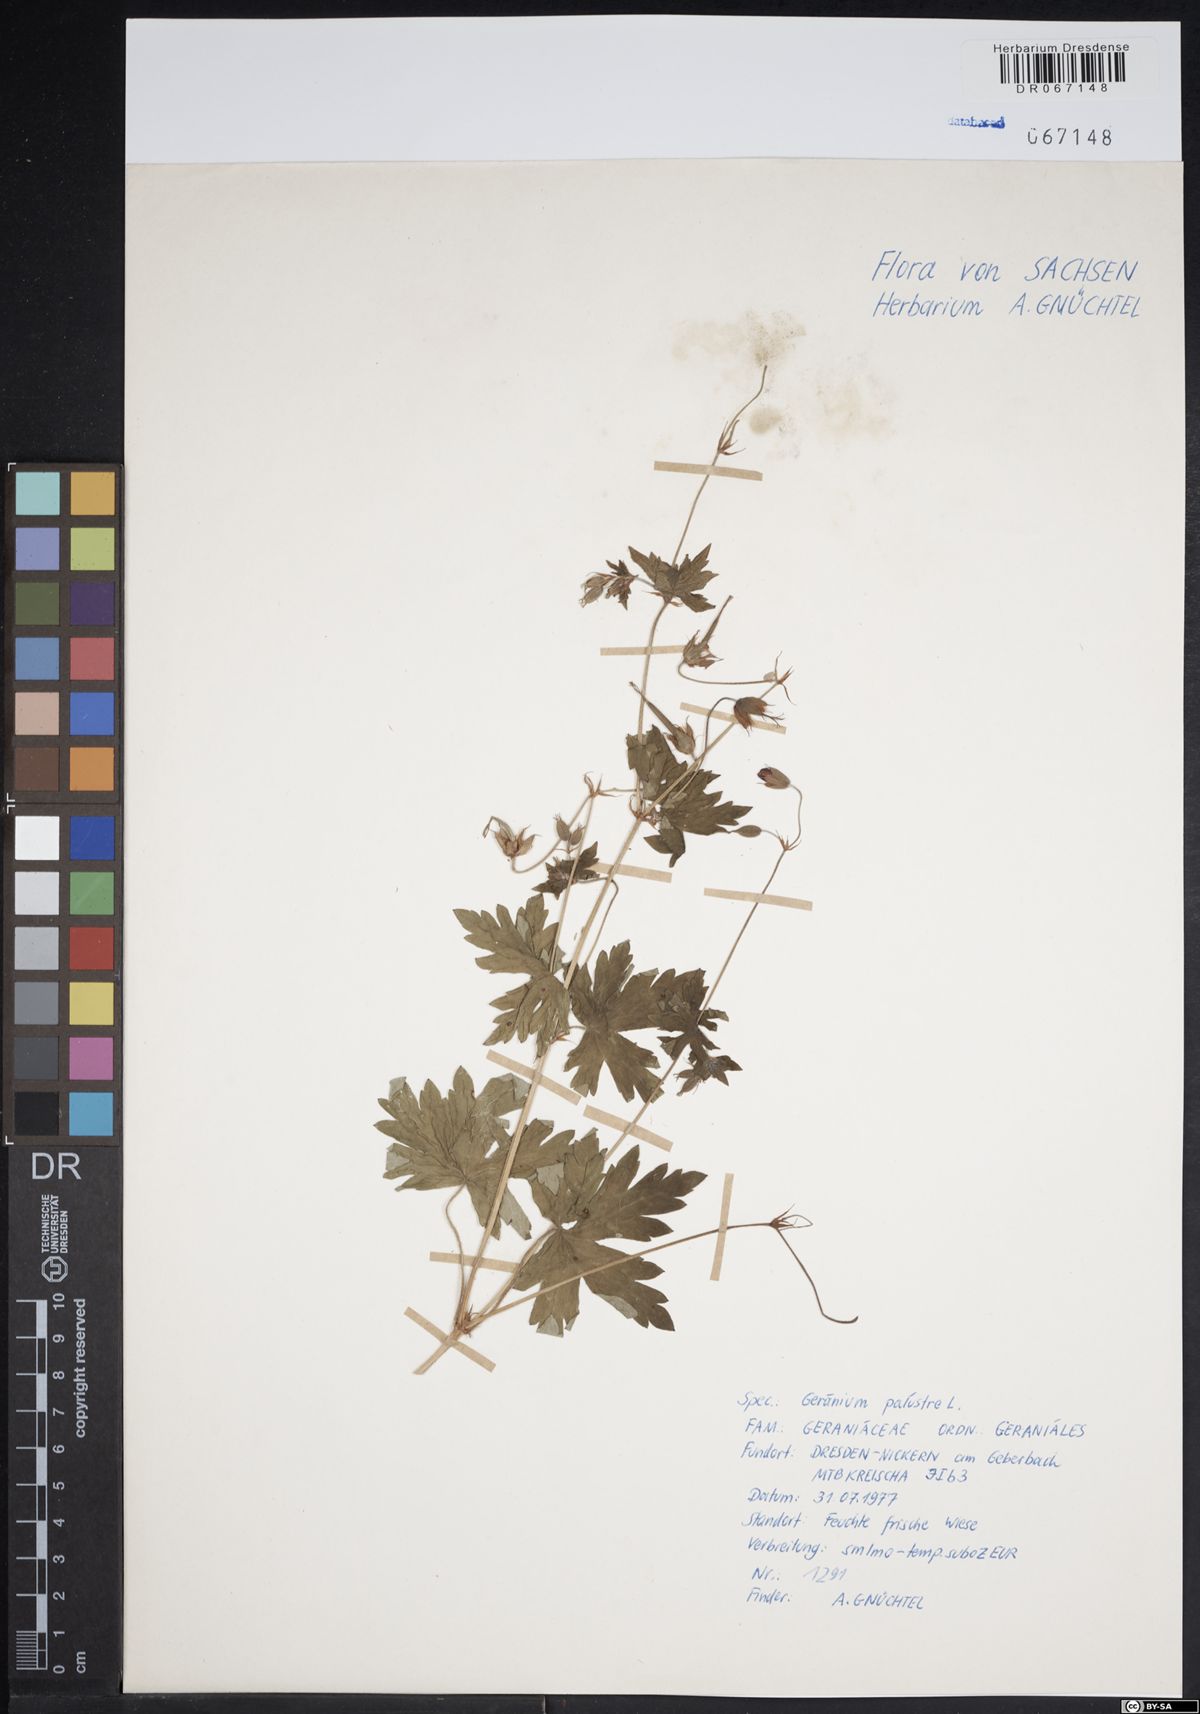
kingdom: Plantae
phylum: Tracheophyta
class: Magnoliopsida
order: Geraniales
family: Geraniaceae
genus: Geranium
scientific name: Geranium palustre
